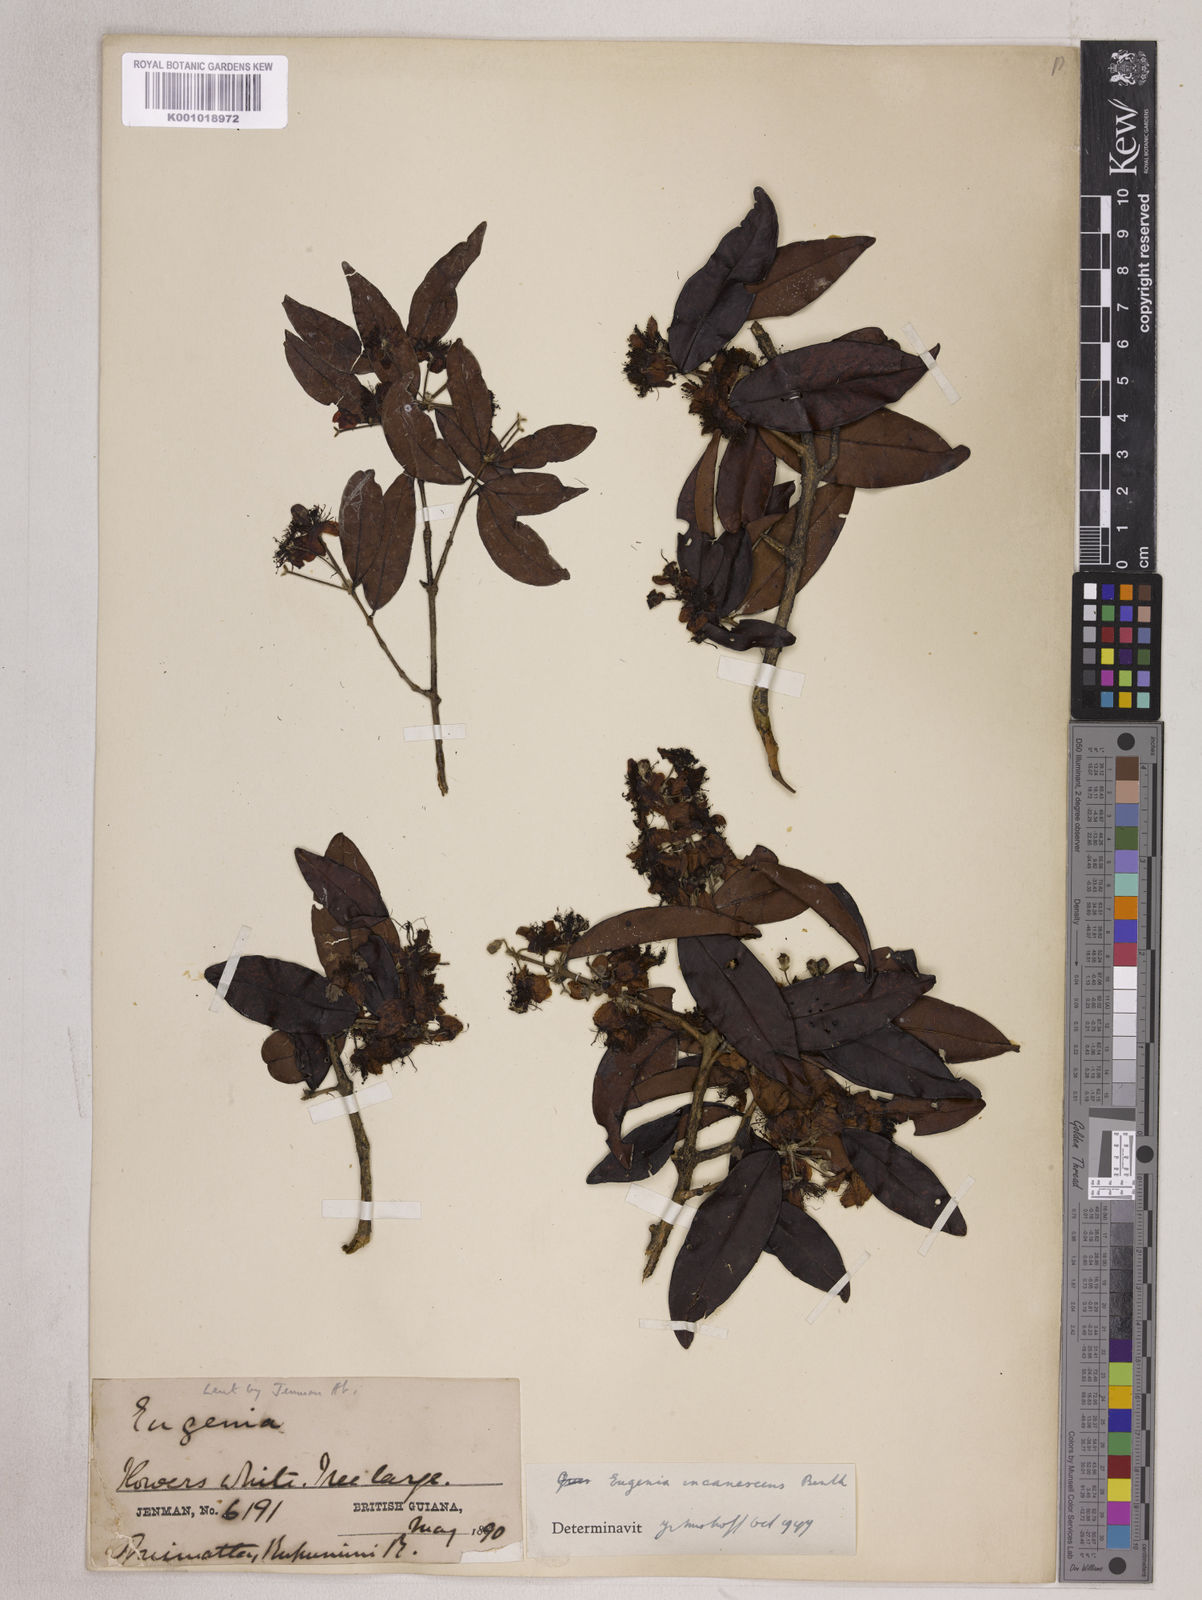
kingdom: Plantae
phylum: Tracheophyta
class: Magnoliopsida
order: Myrtales
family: Myrtaceae
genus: Eugenia
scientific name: Eugenia incanescens
